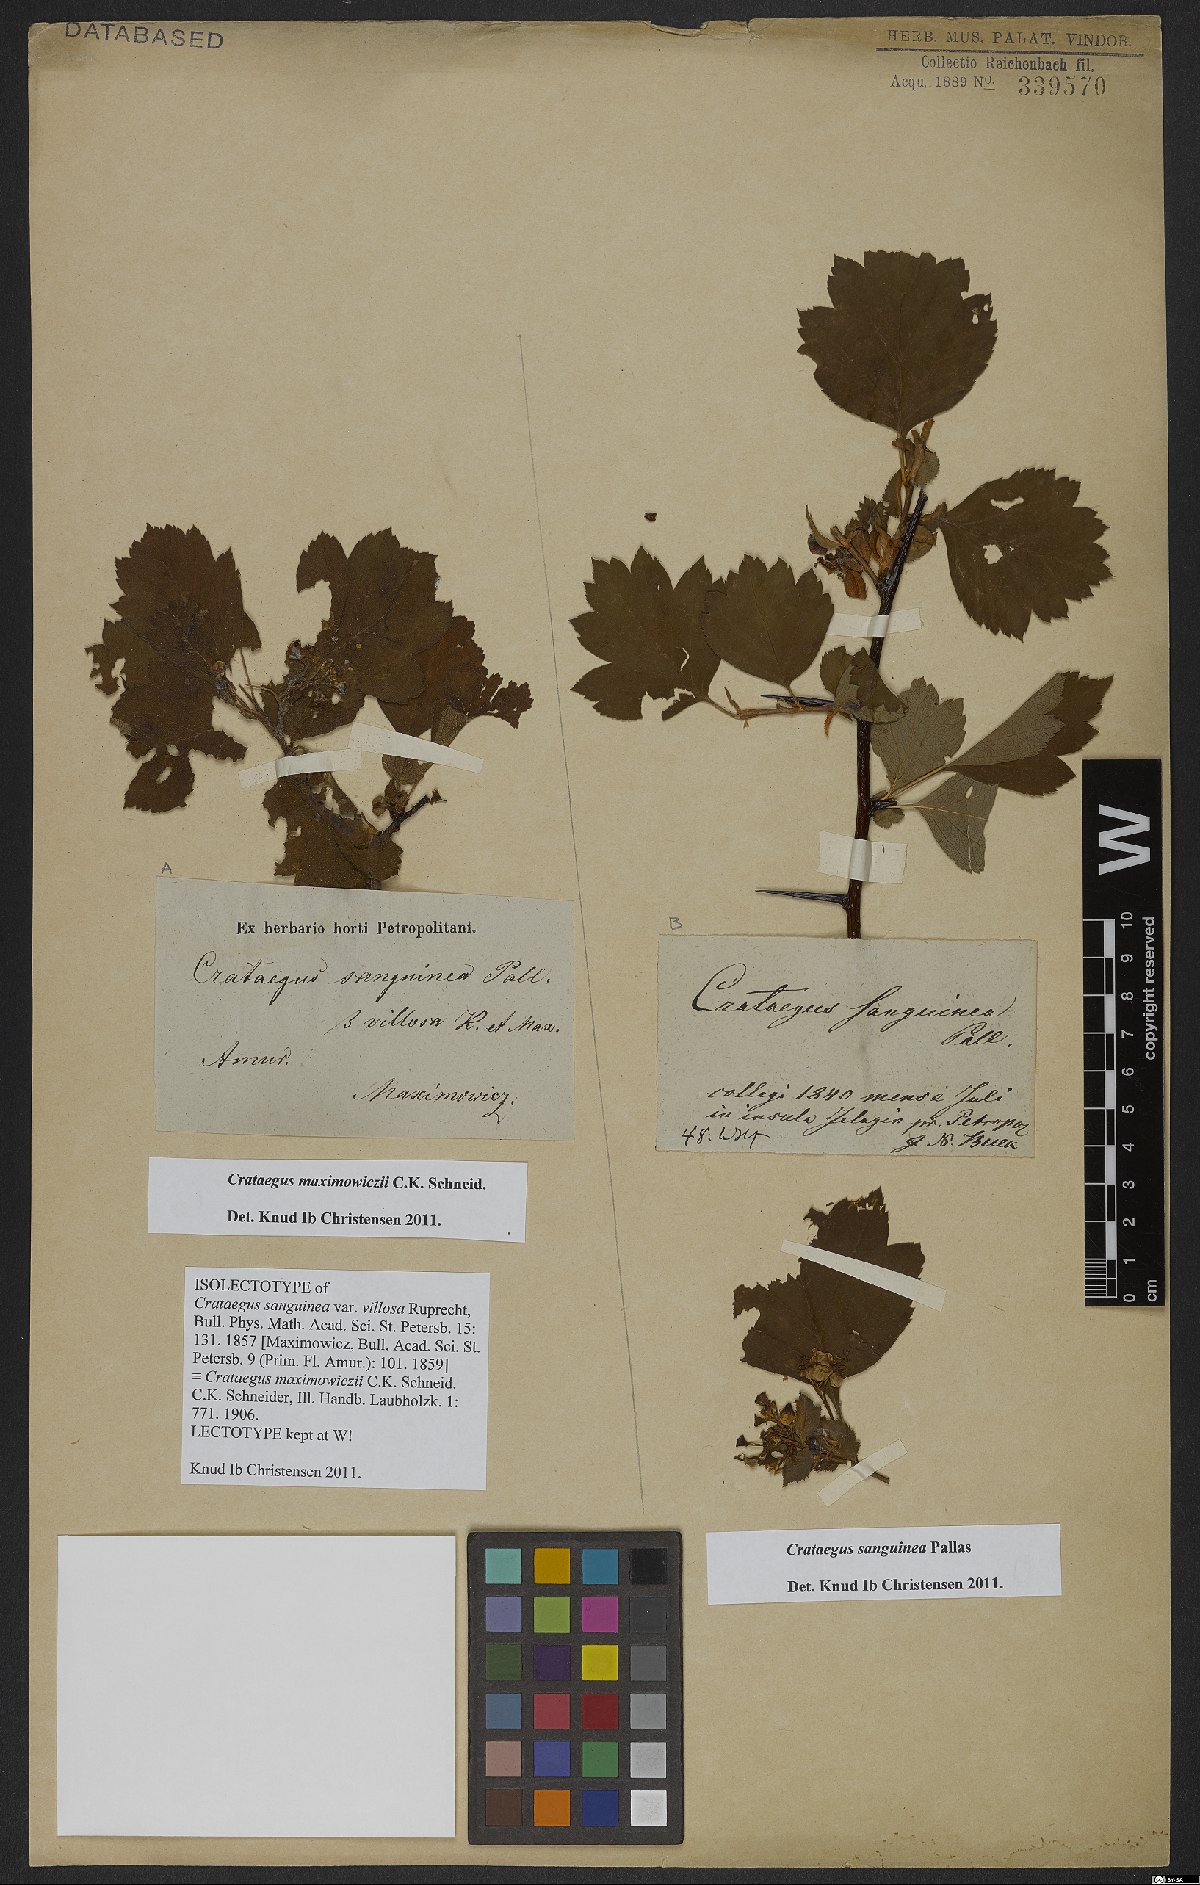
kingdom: Plantae
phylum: Tracheophyta
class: Magnoliopsida
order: Rosales
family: Rosaceae
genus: Crataegus
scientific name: Crataegus sanguinea
